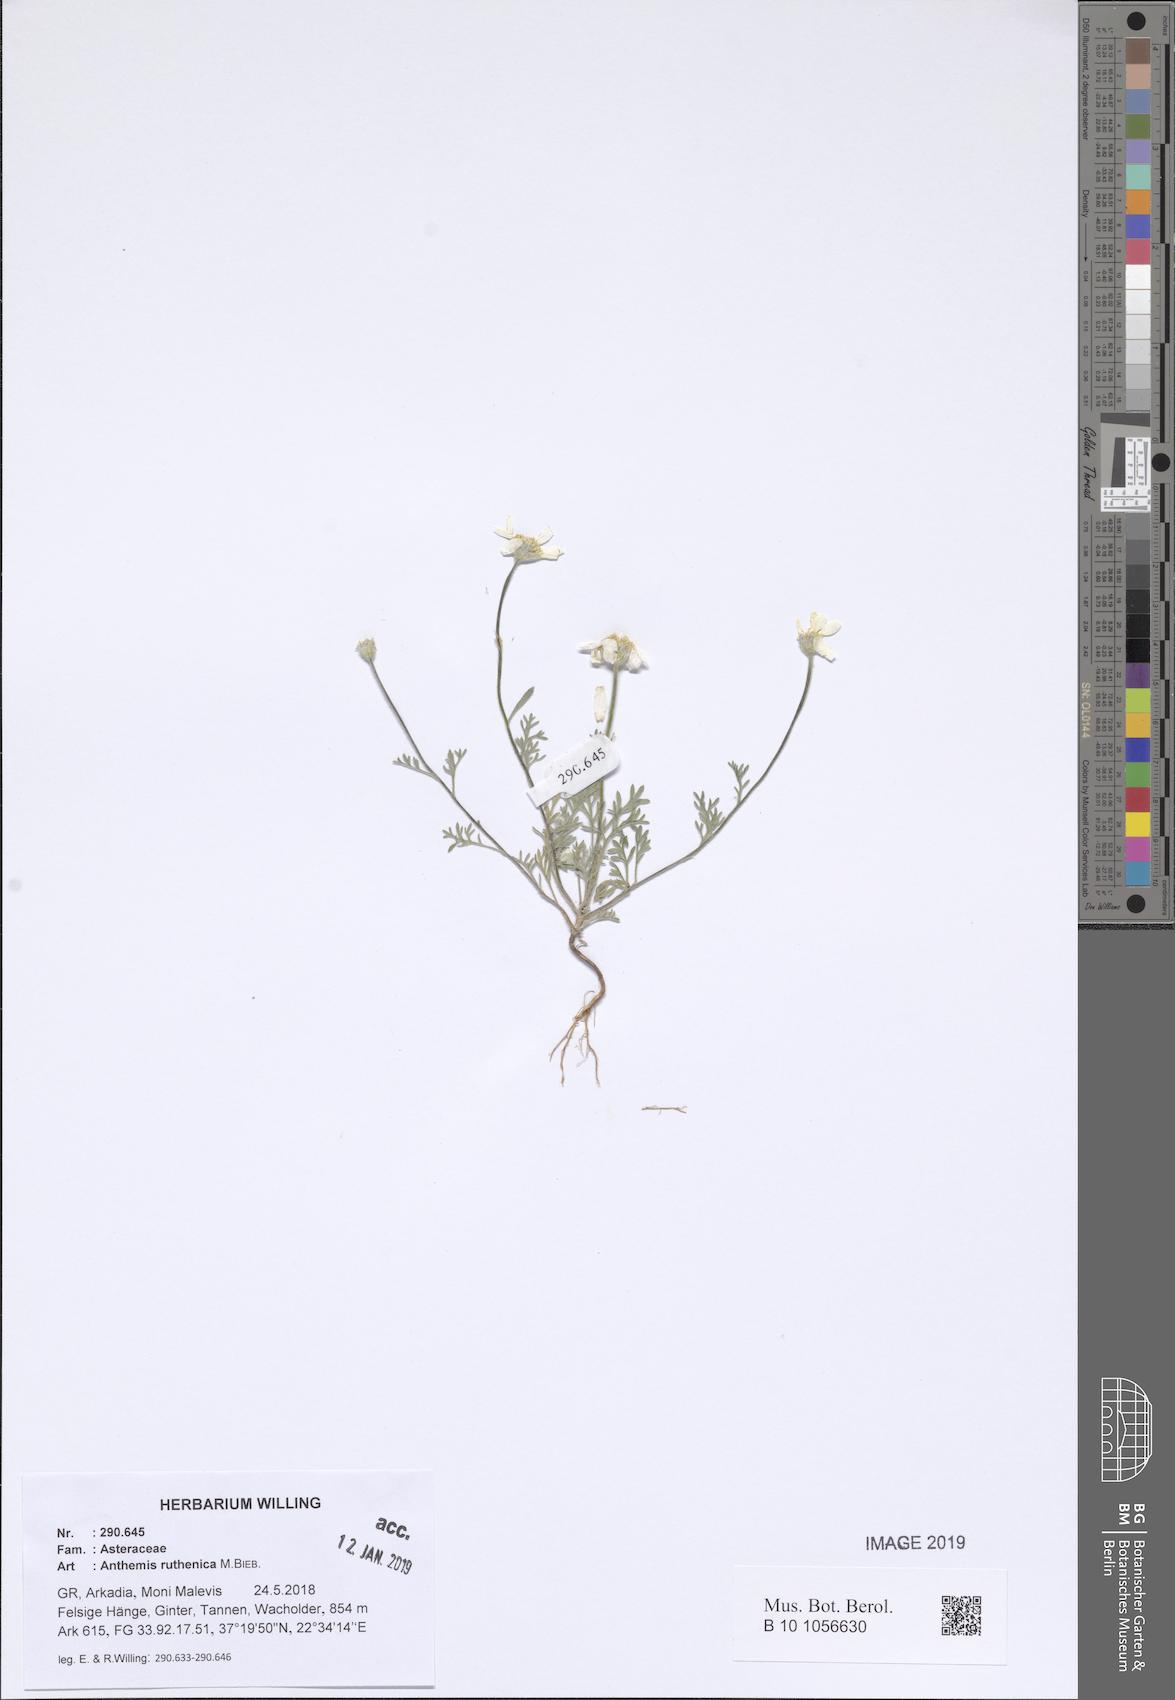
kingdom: Plantae
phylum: Tracheophyta
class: Magnoliopsida
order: Asterales
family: Asteraceae
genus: Anthemis
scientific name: Anthemis ruthenica
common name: Eastern chamomile
